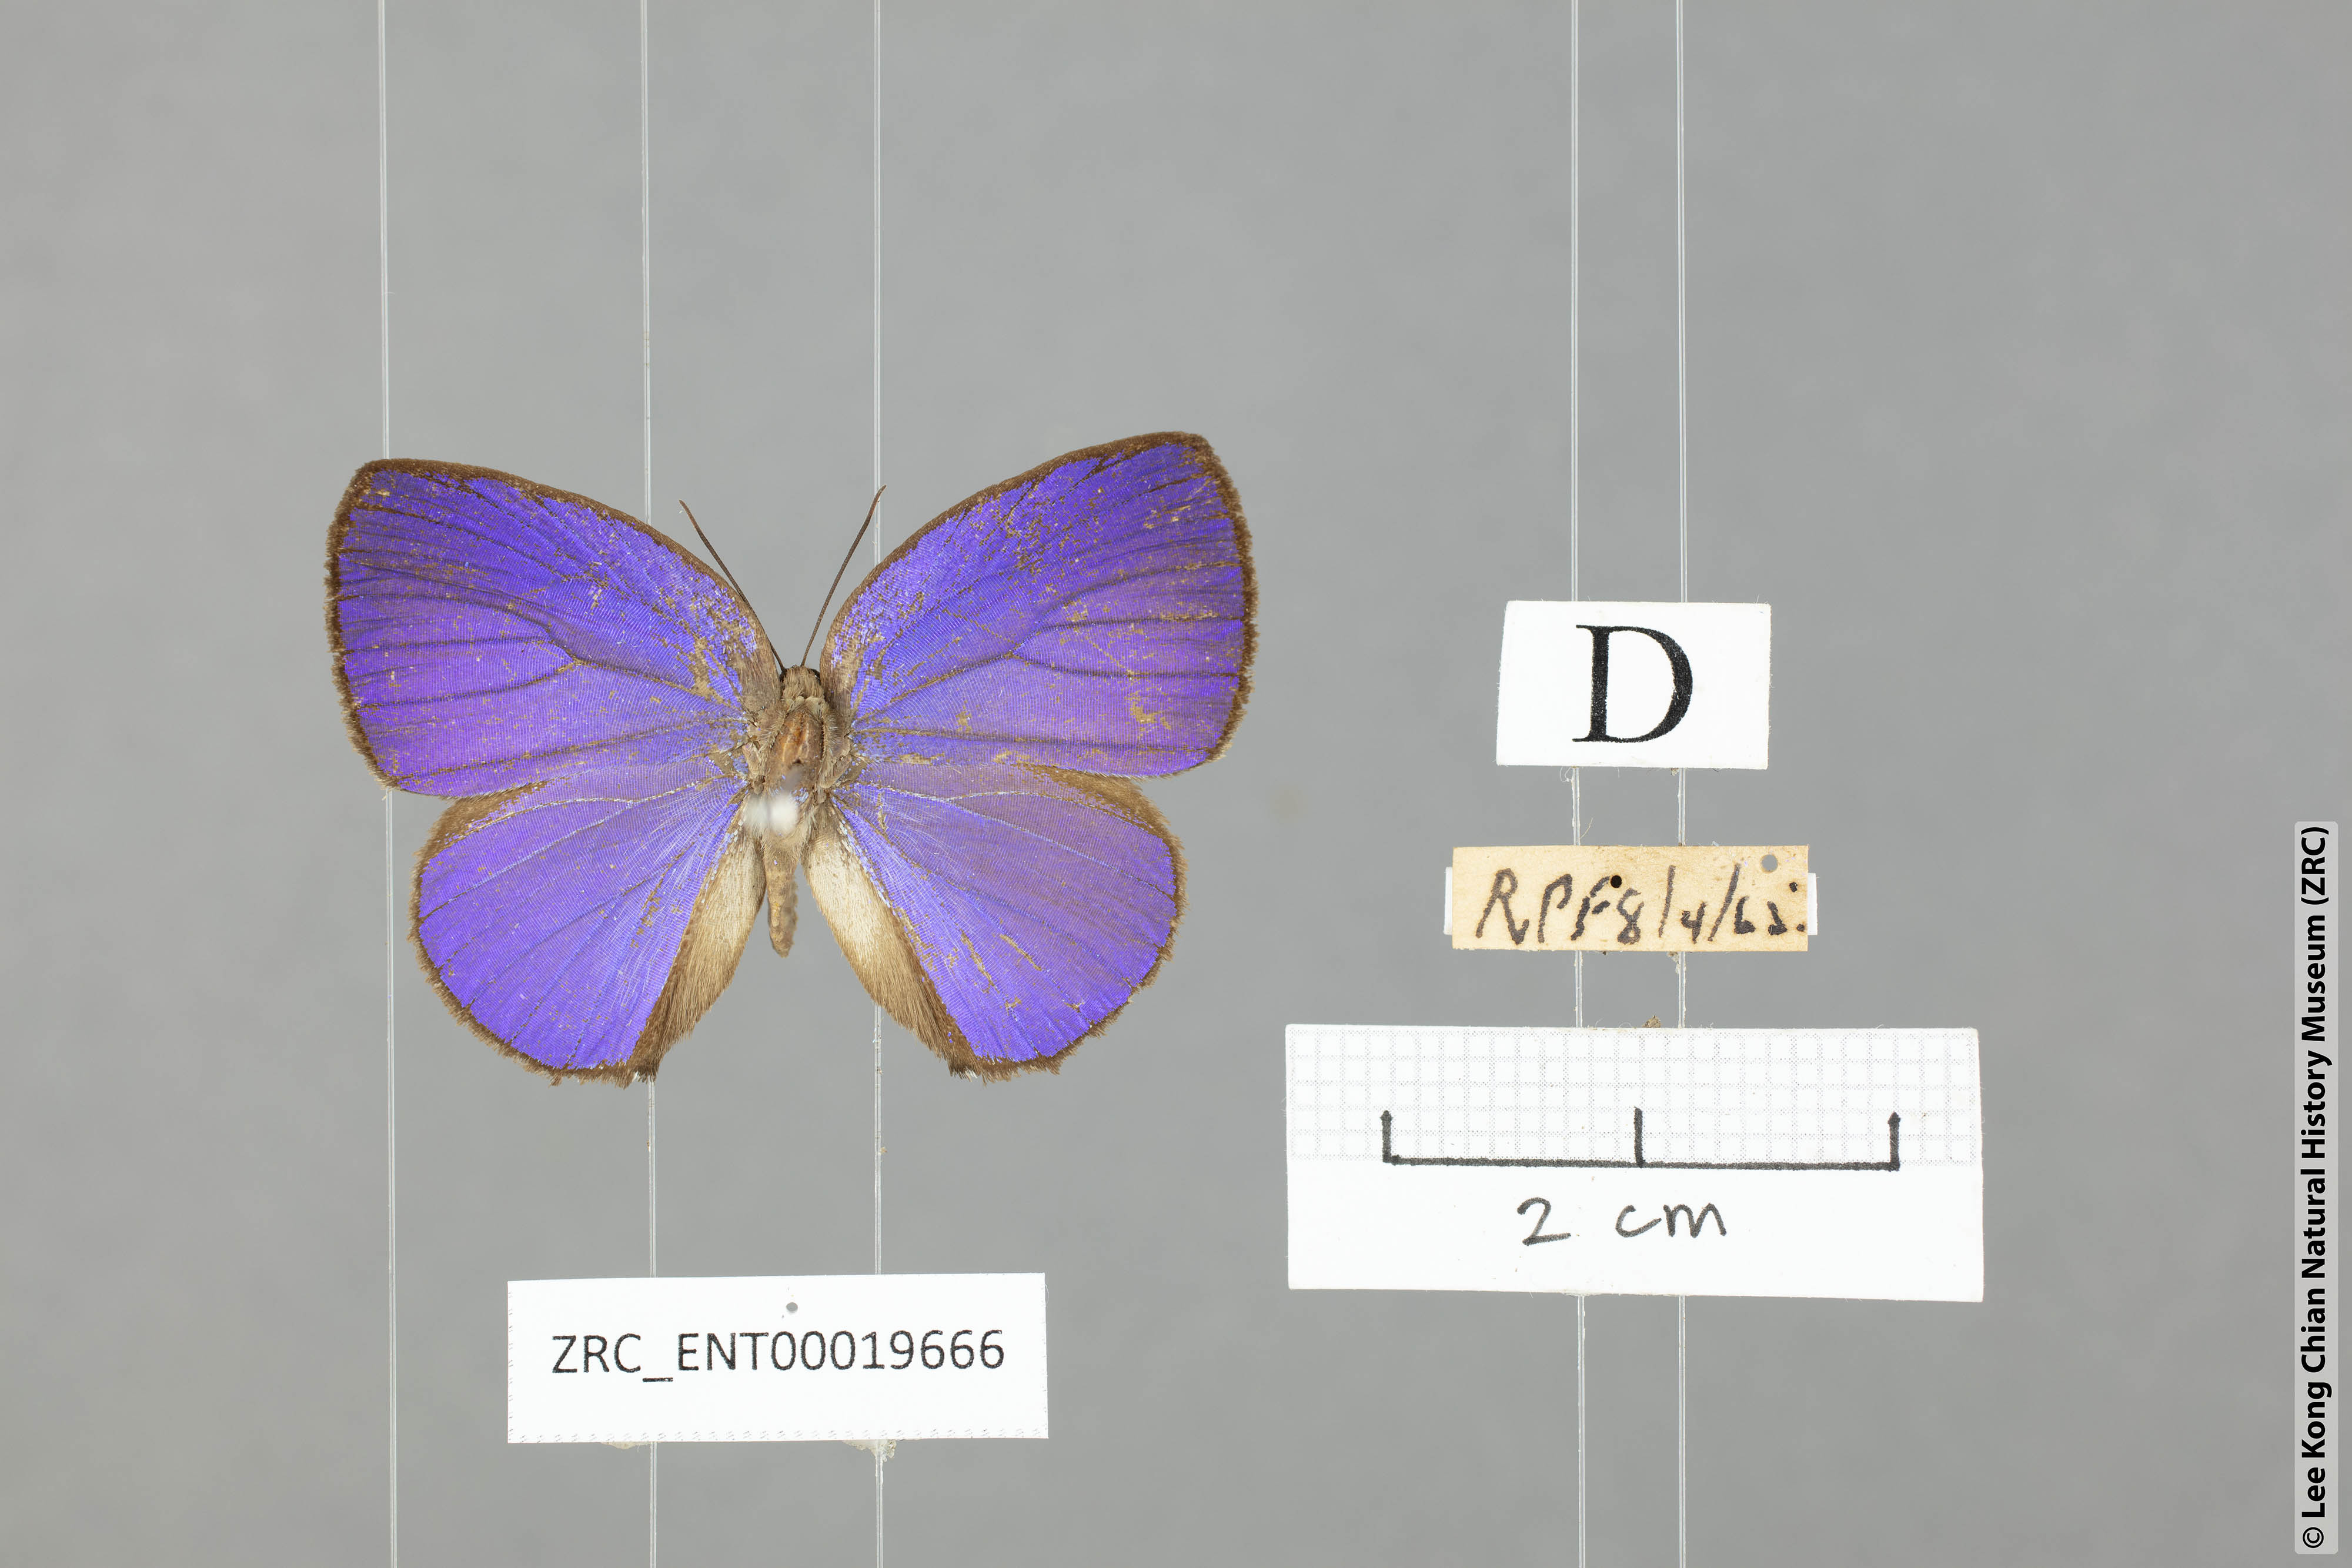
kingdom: Animalia
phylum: Arthropoda
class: Insecta
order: Lepidoptera
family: Lycaenidae
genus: Arhopala
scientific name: Arhopala moolaina
